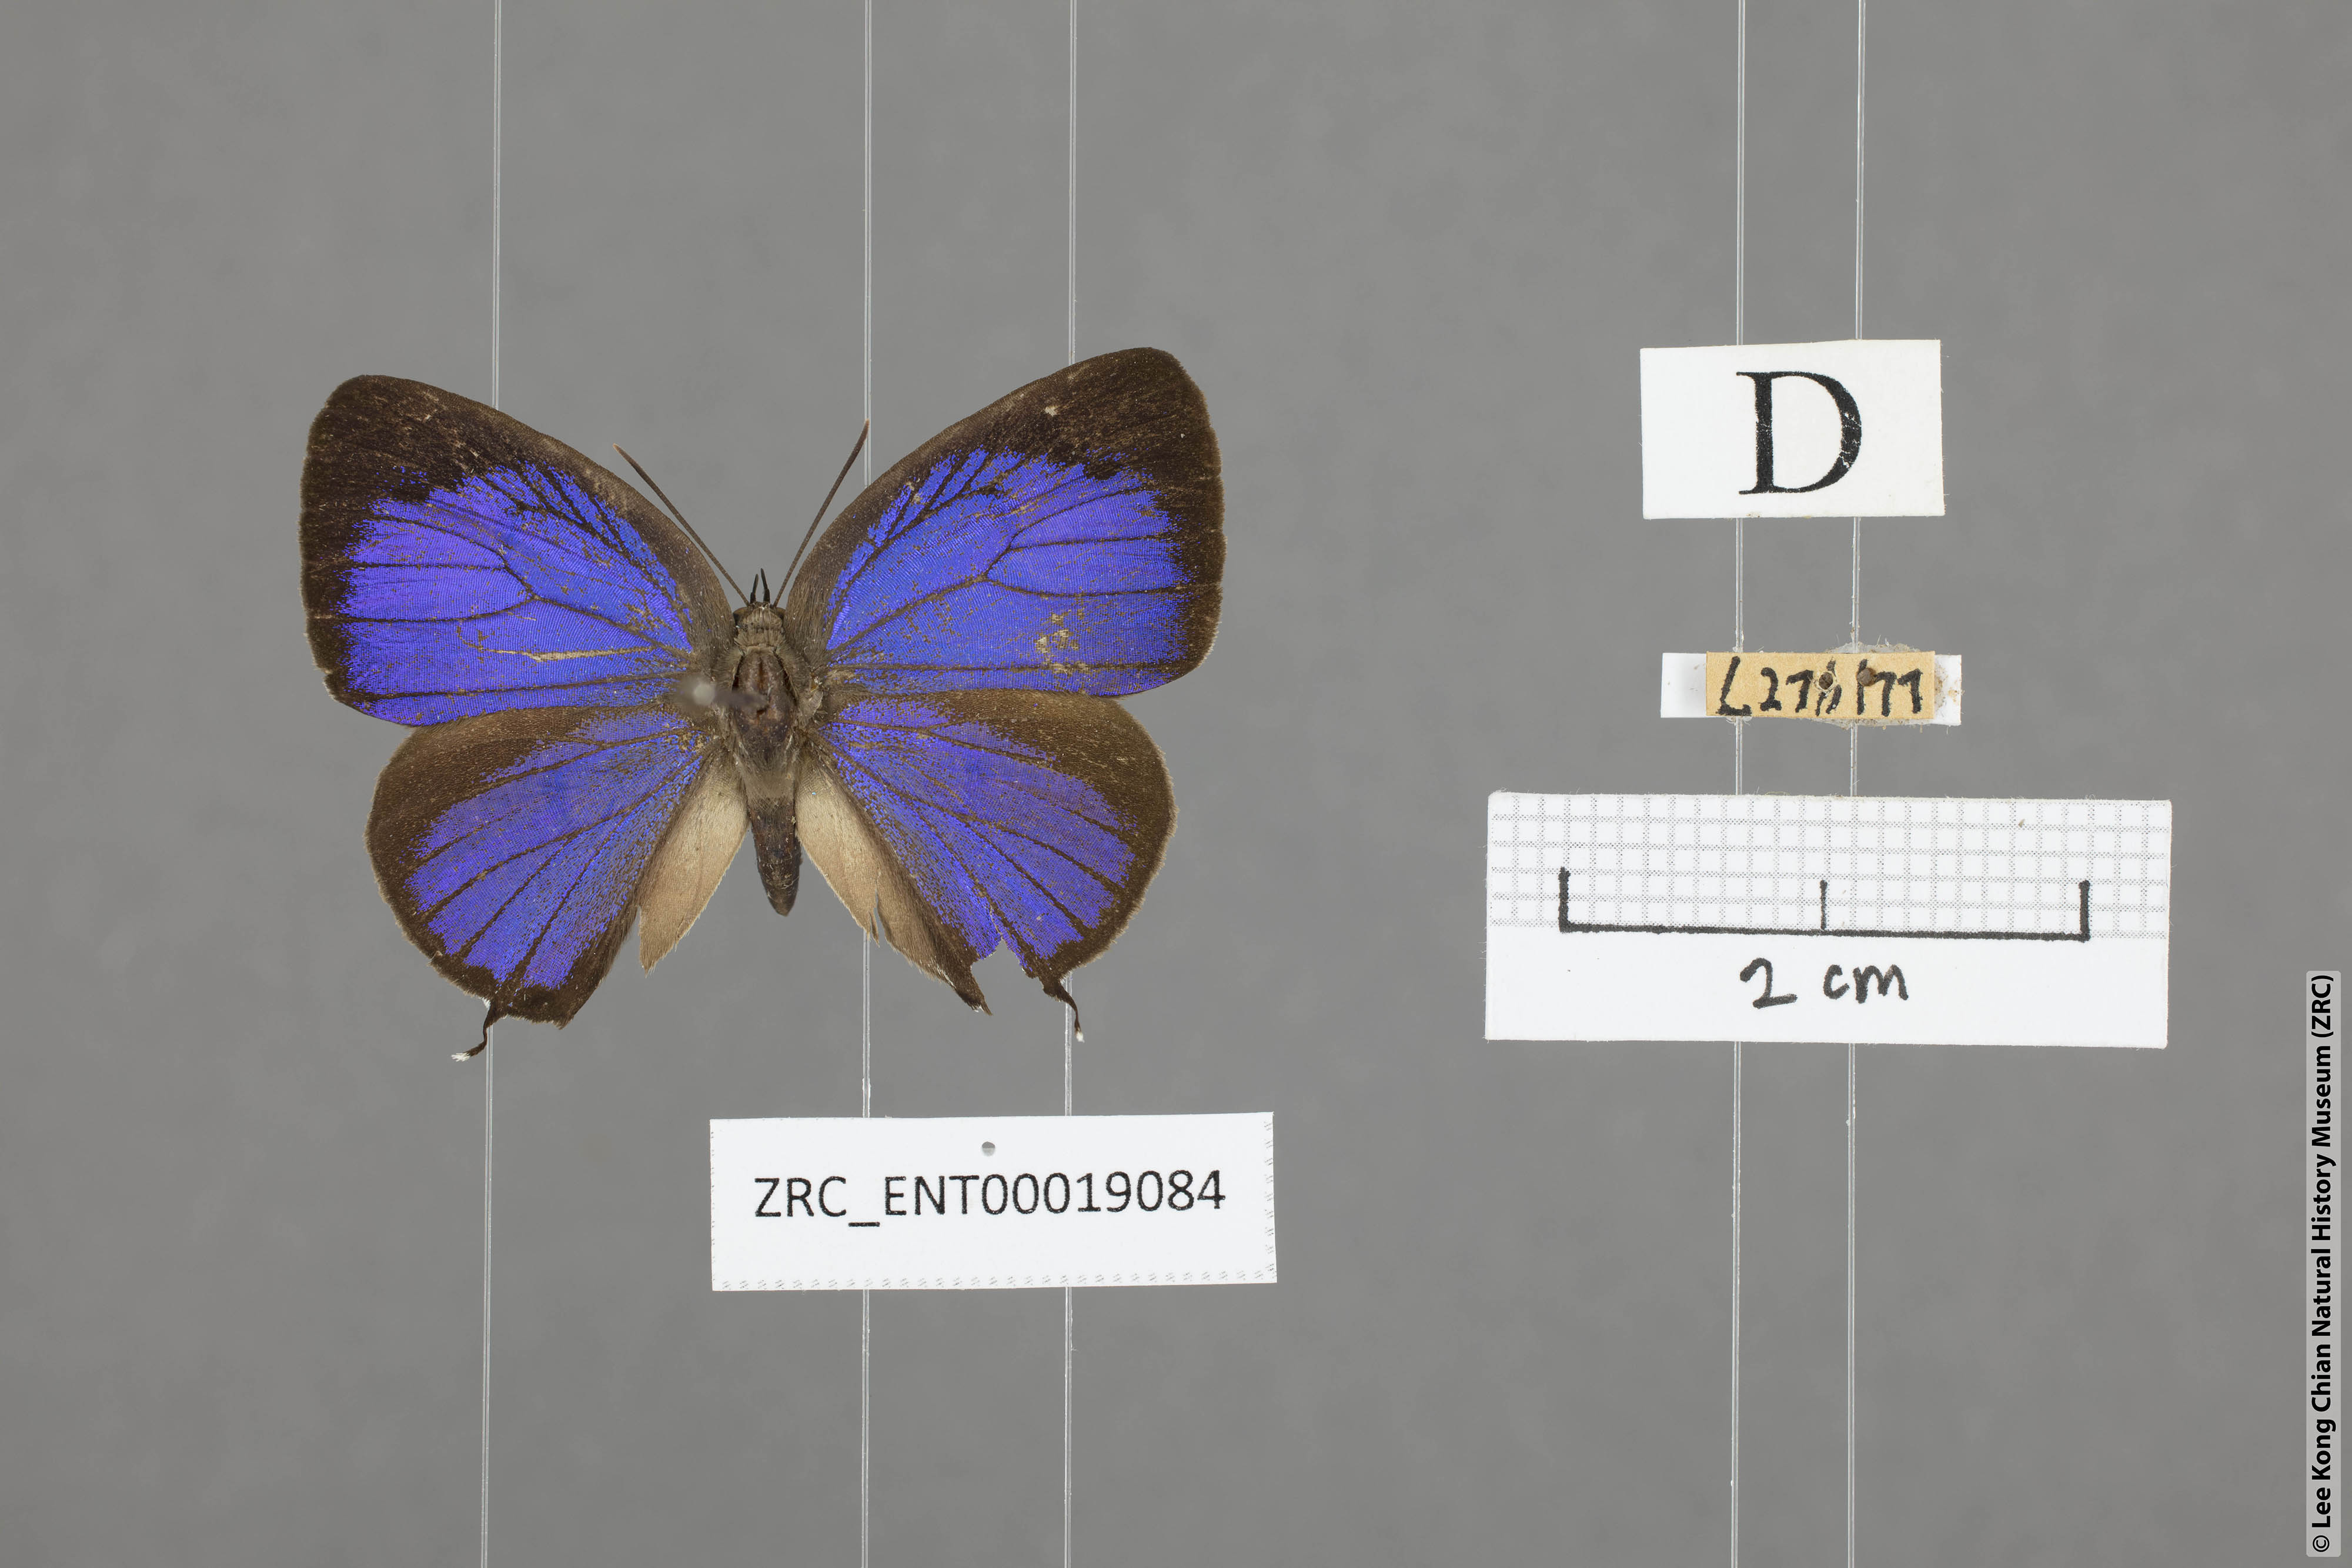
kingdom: Animalia
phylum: Arthropoda
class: Insecta
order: Lepidoptera
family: Lycaenidae
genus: Arhopala
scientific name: Arhopala alitaeus
